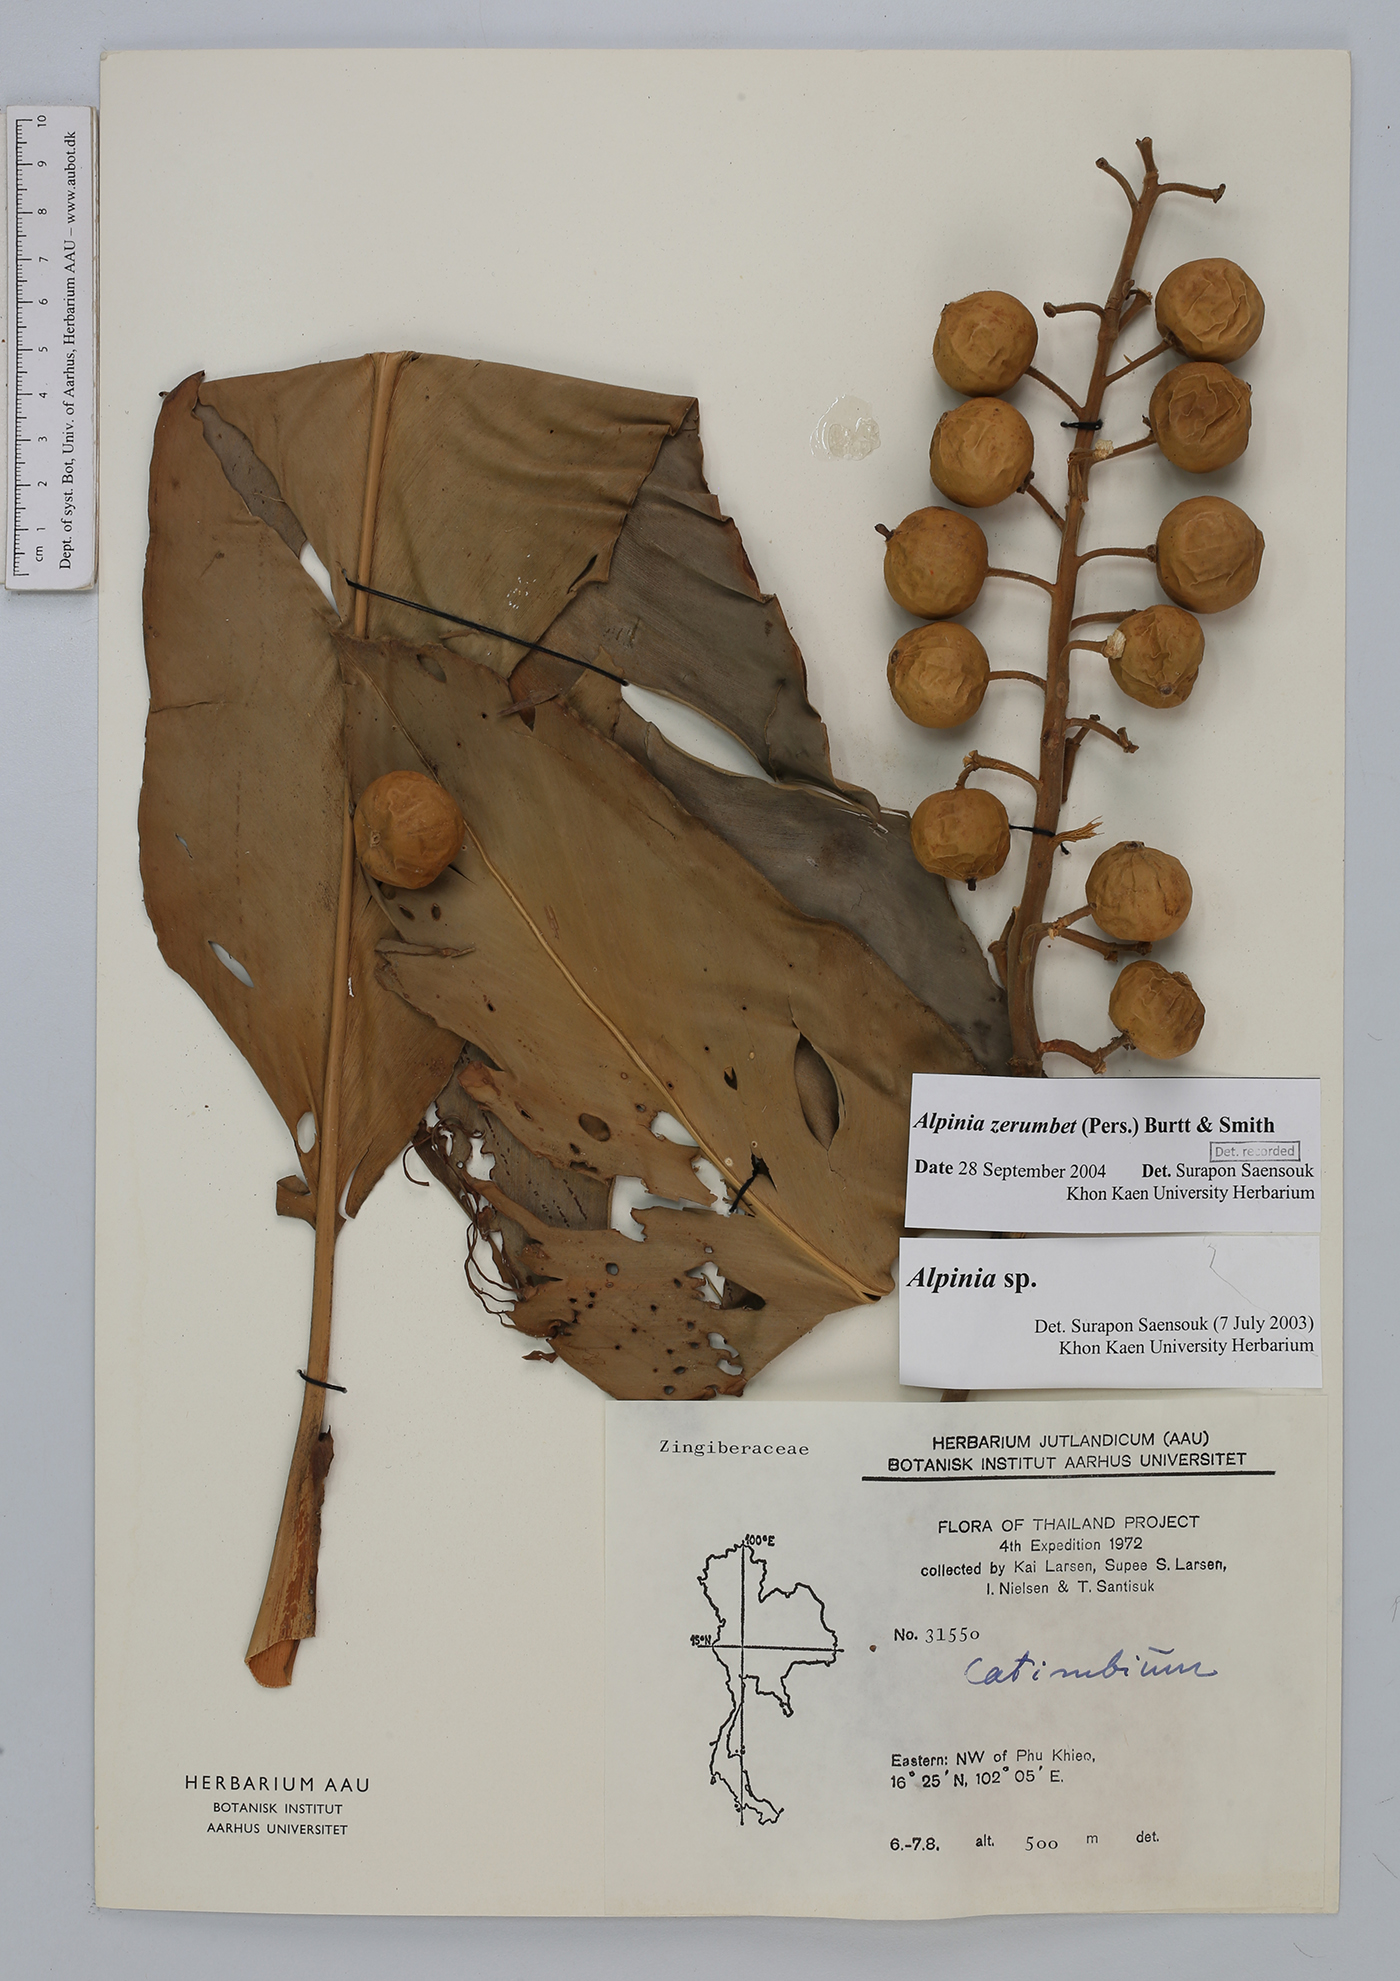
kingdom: Plantae
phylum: Tracheophyta
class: Liliopsida
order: Zingiberales
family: Zingiberaceae
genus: Alpinia
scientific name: Alpinia zerumbet
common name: Shellplant
